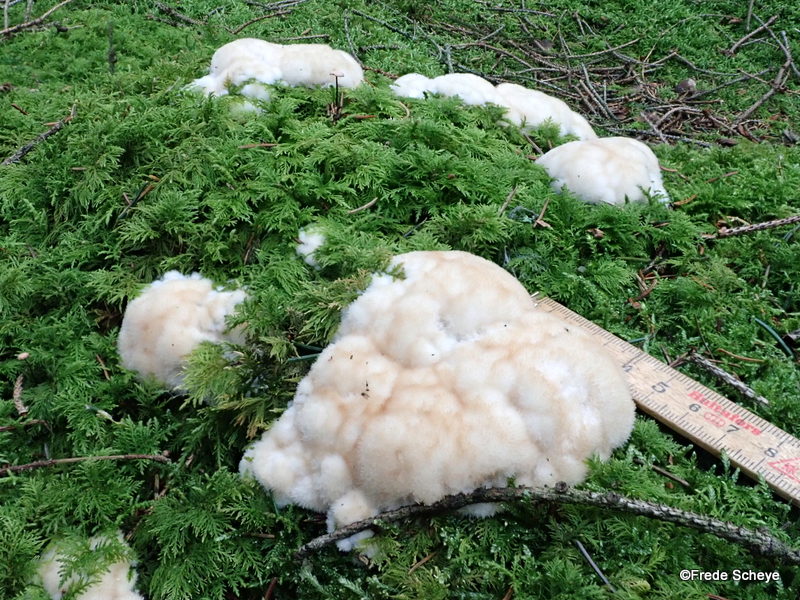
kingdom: Fungi
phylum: Basidiomycota
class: Agaricomycetes
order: Polyporales
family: Dacryobolaceae
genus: Postia
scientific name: Postia ptychogaster
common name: støvende kødporesvamp
